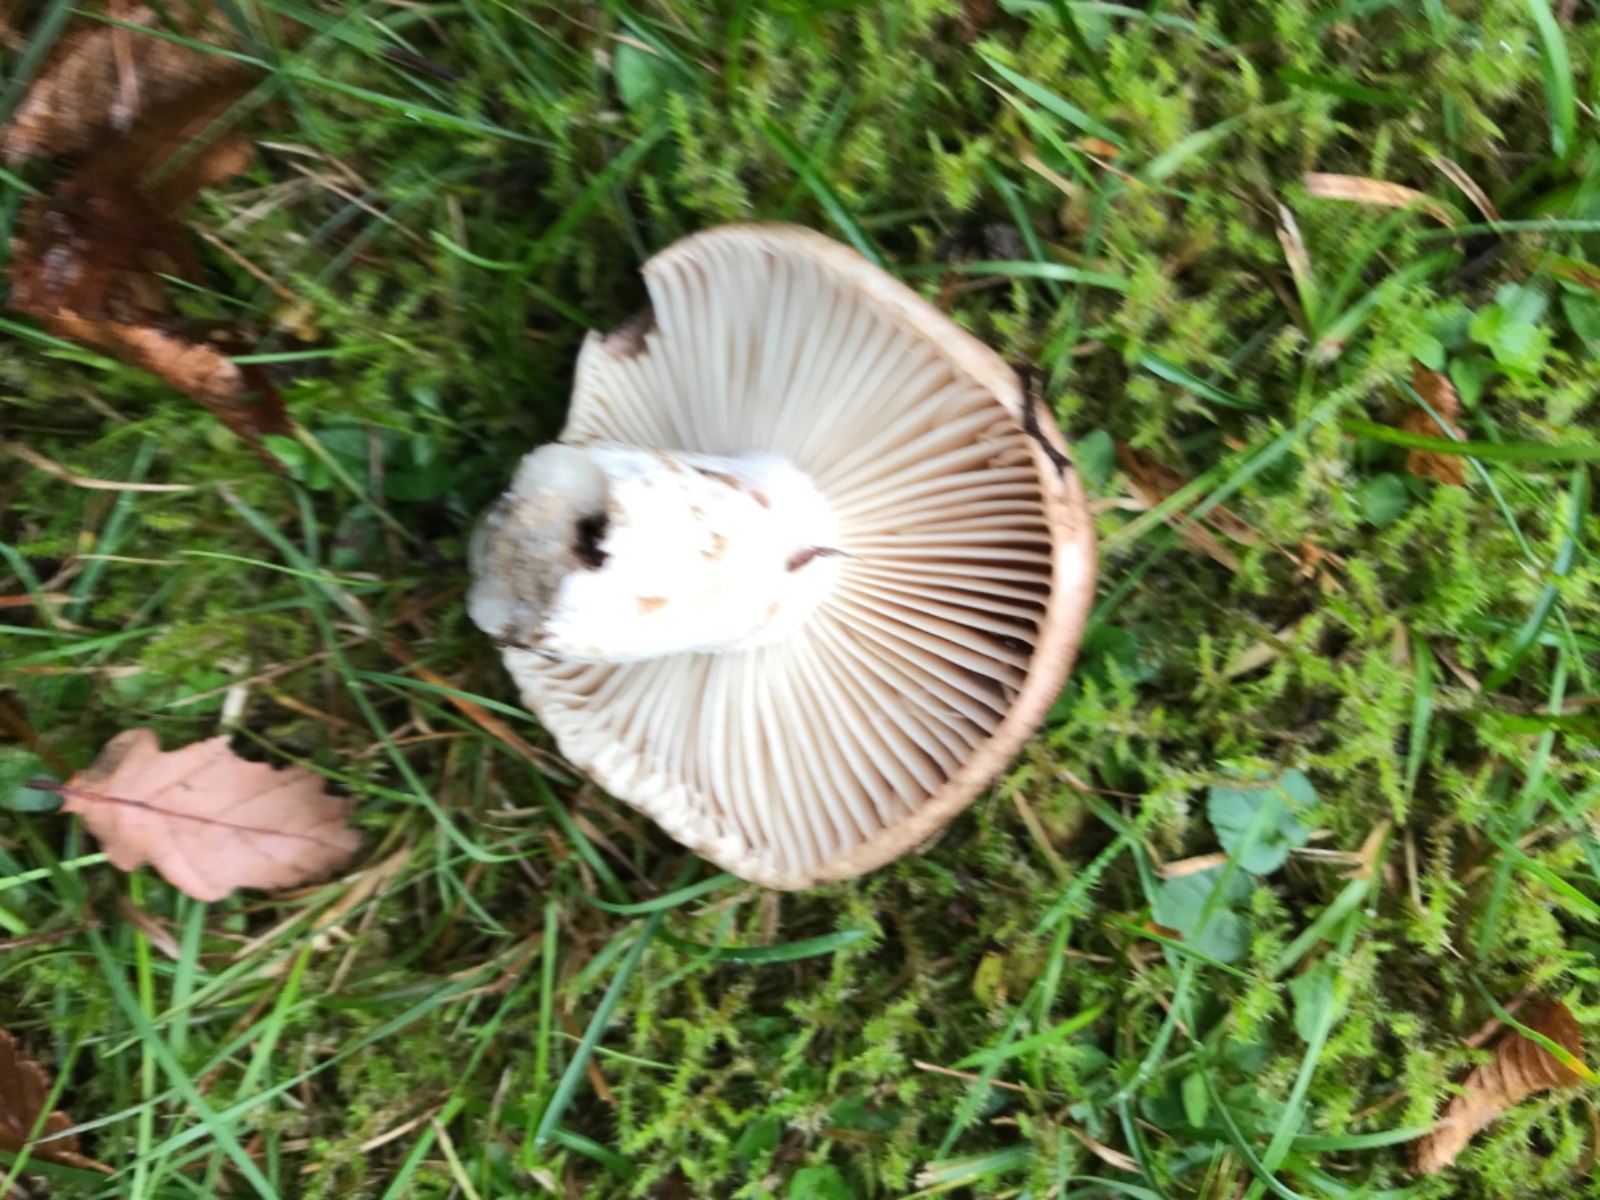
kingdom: Fungi
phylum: Basidiomycota
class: Agaricomycetes
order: Russulales
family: Russulaceae
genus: Russula
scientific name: Russula adusta
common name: sværtende skørhat
